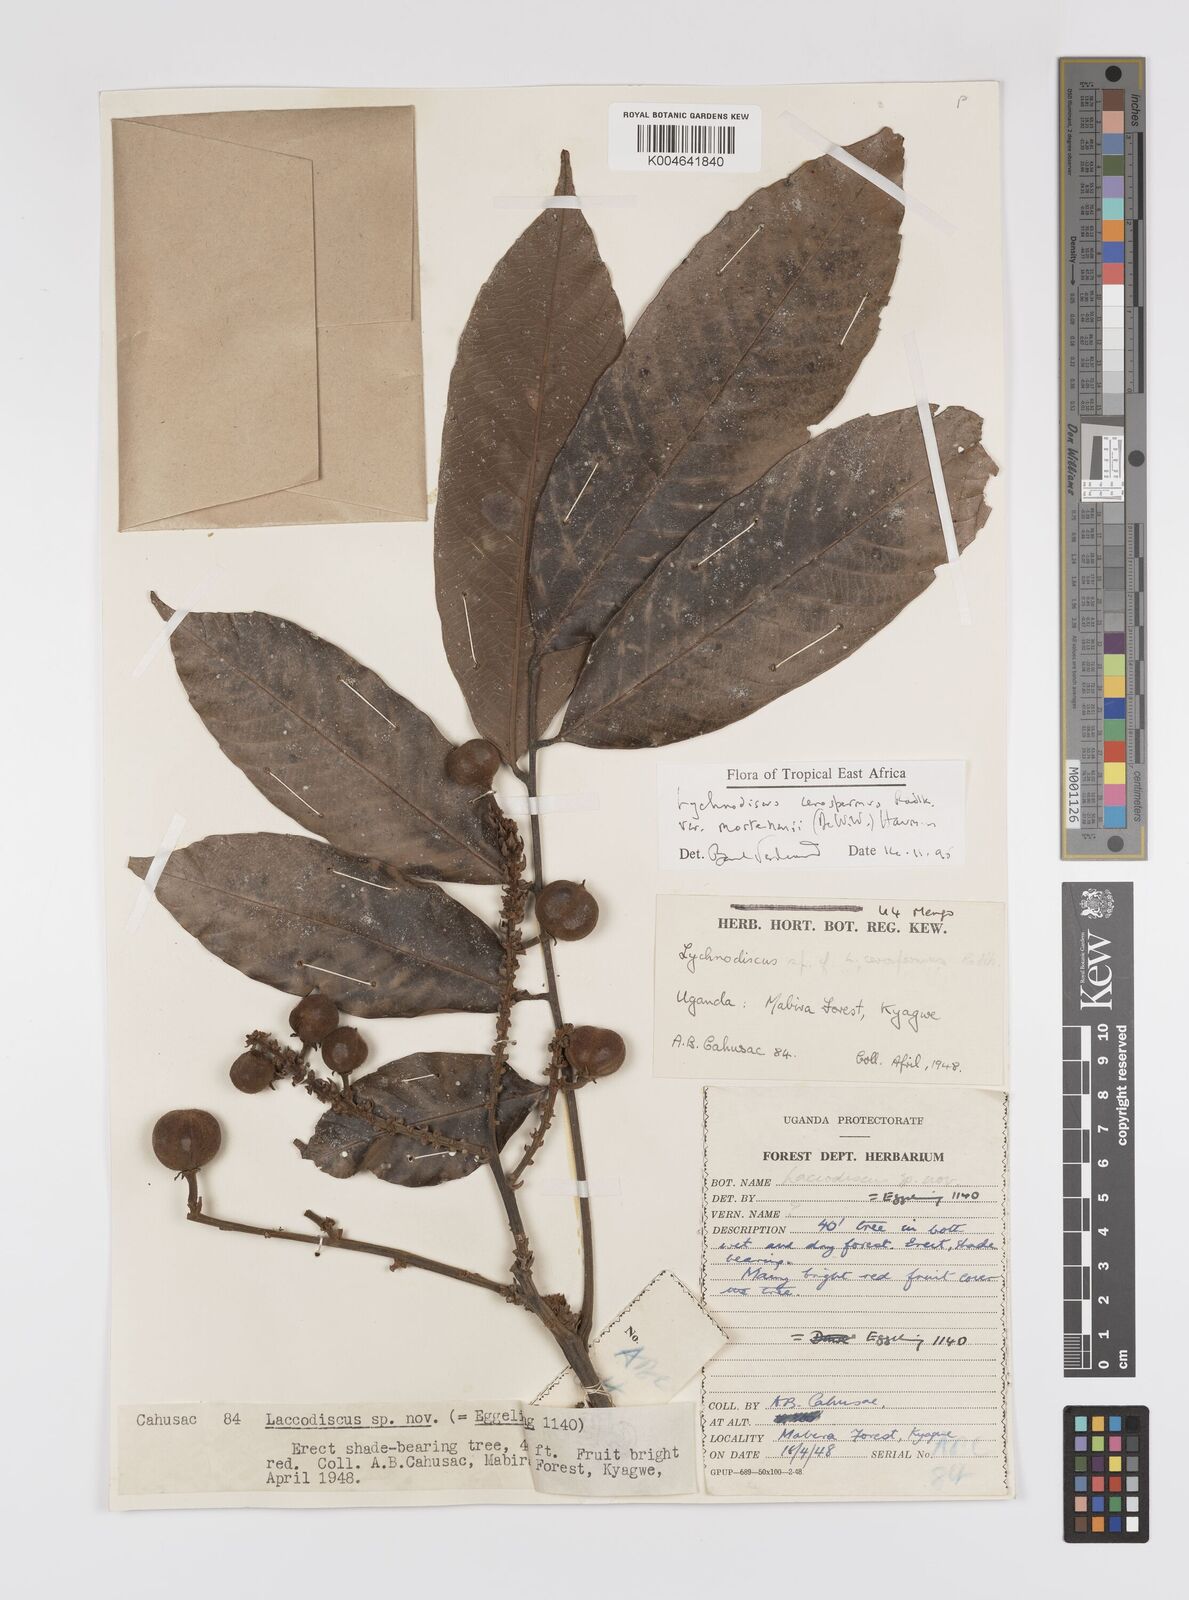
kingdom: Plantae
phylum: Tracheophyta
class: Magnoliopsida
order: Sapindales
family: Sapindaceae
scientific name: Sapindaceae
